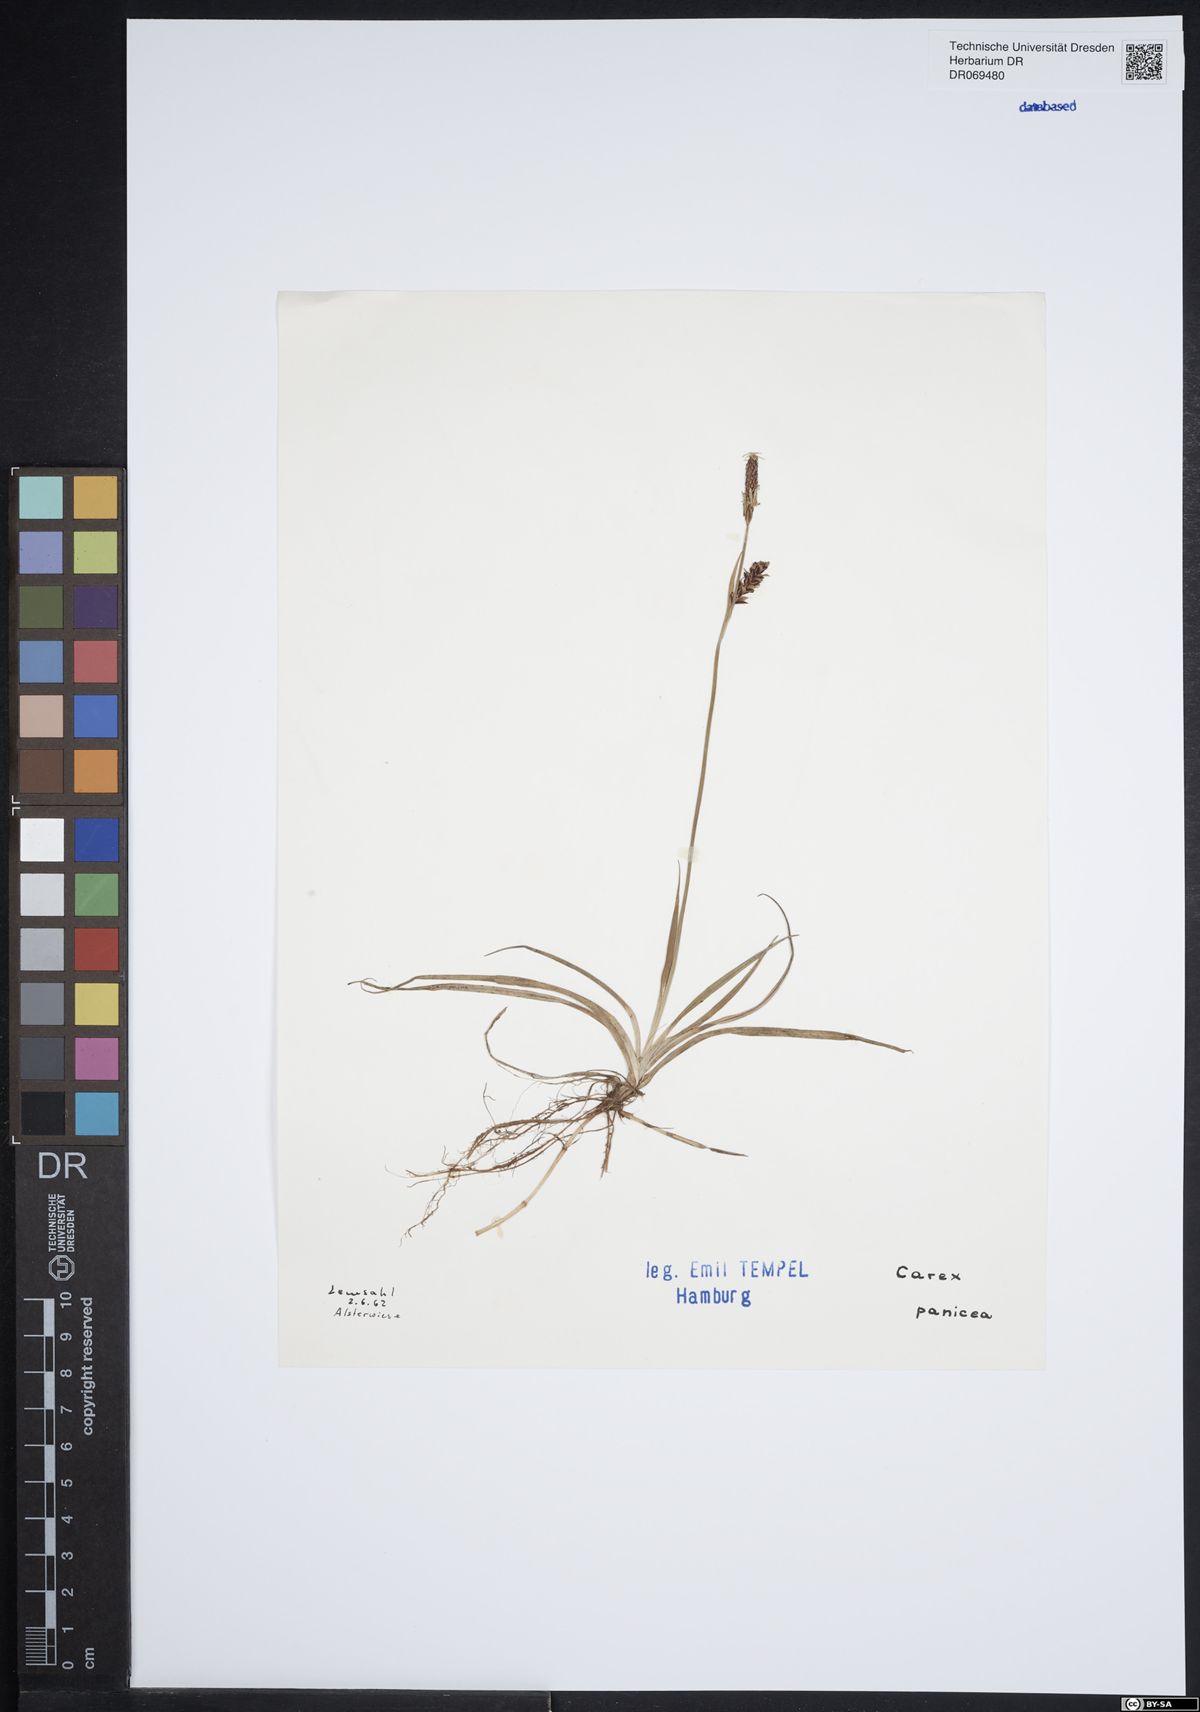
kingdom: Plantae
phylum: Tracheophyta
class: Liliopsida
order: Poales
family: Cyperaceae
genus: Carex
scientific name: Carex panicea
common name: Carnation sedge
